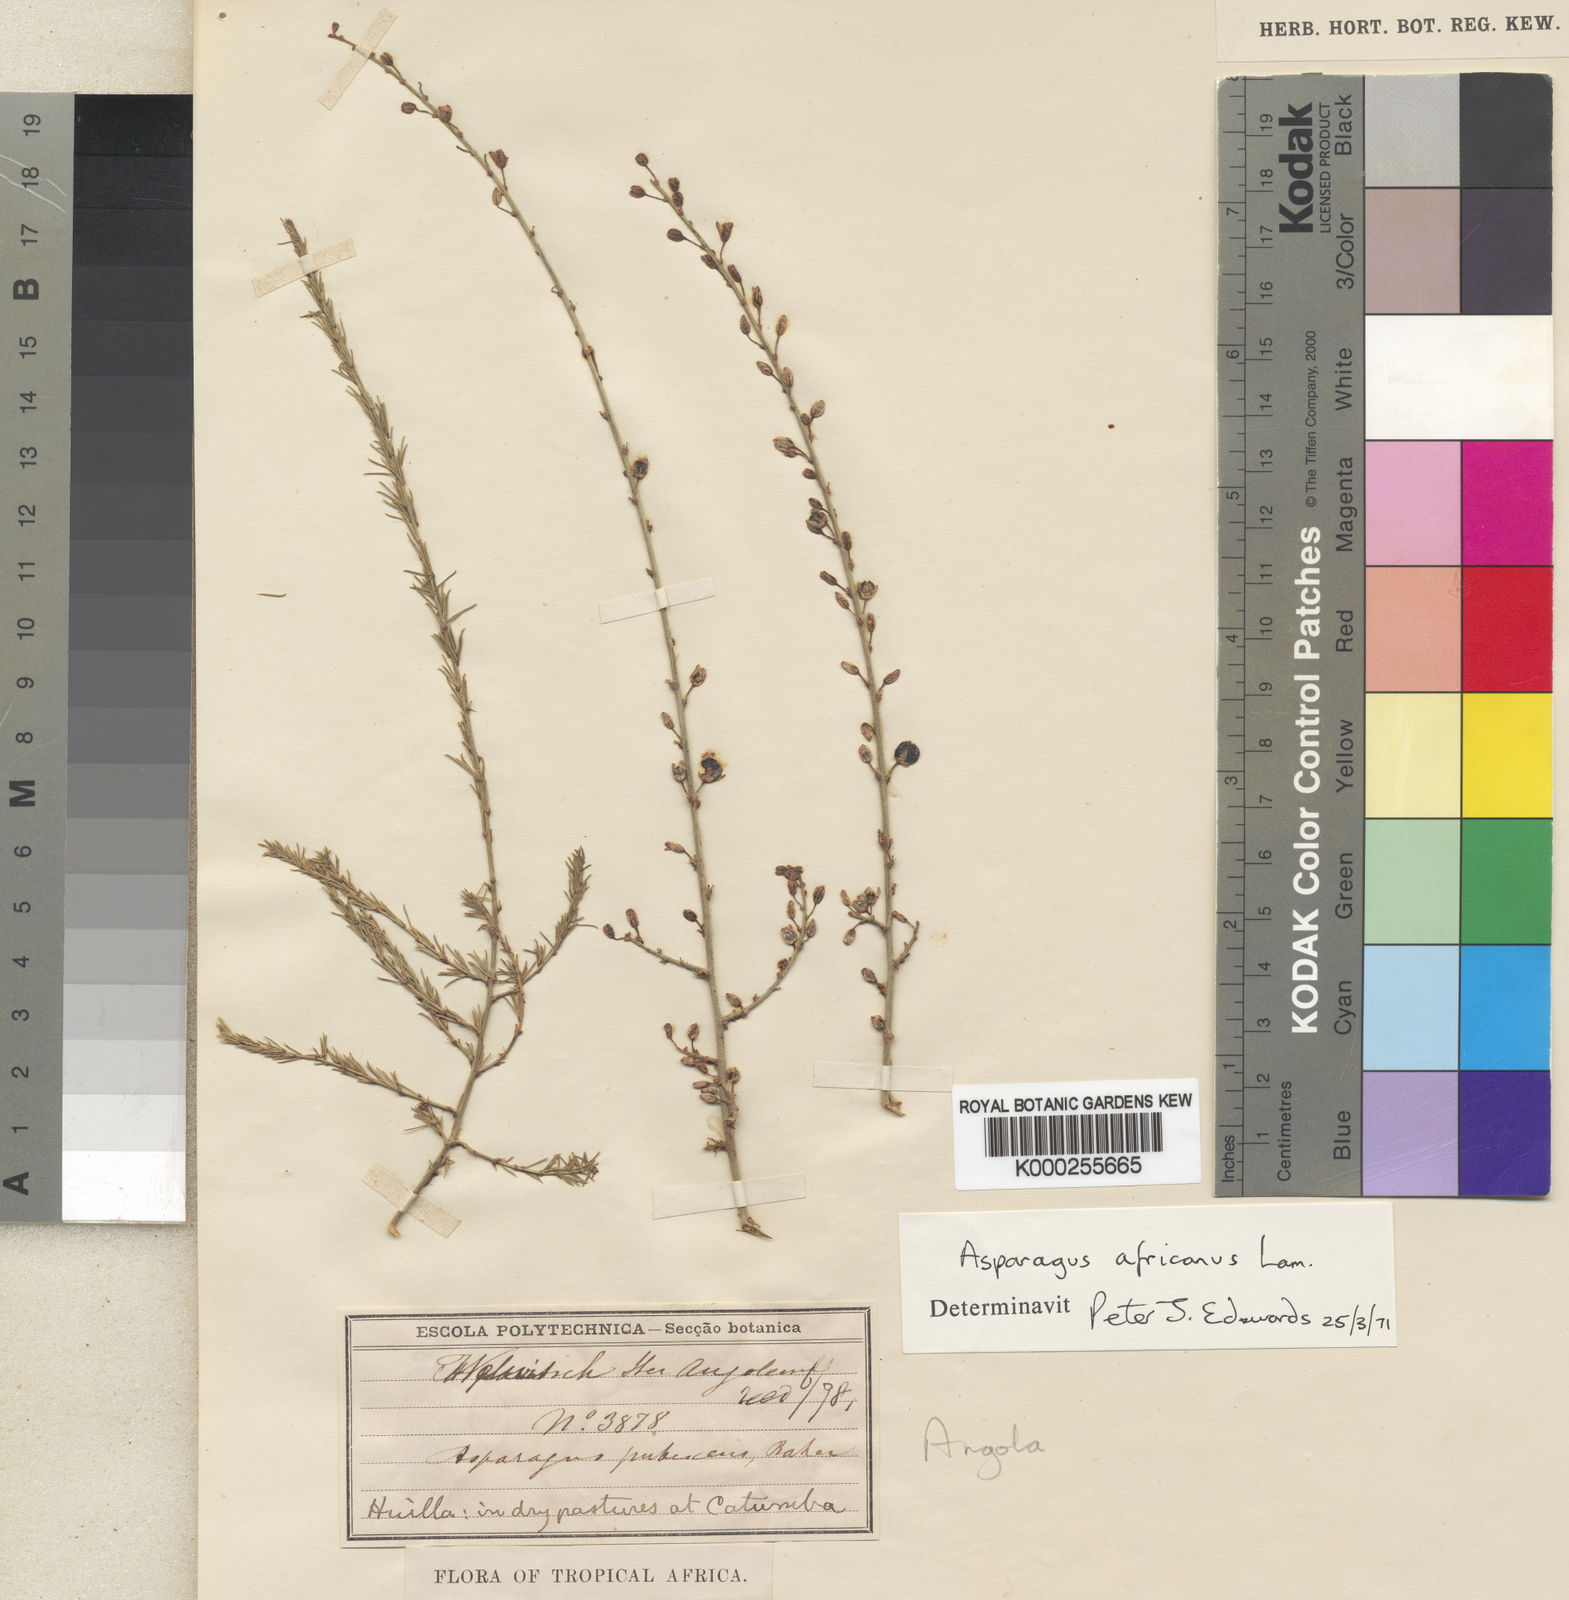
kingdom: Plantae
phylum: Tracheophyta
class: Liliopsida
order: Asparagales
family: Asparagaceae
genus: Asparagus
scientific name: Asparagus africanus
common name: Asparagus-fern
